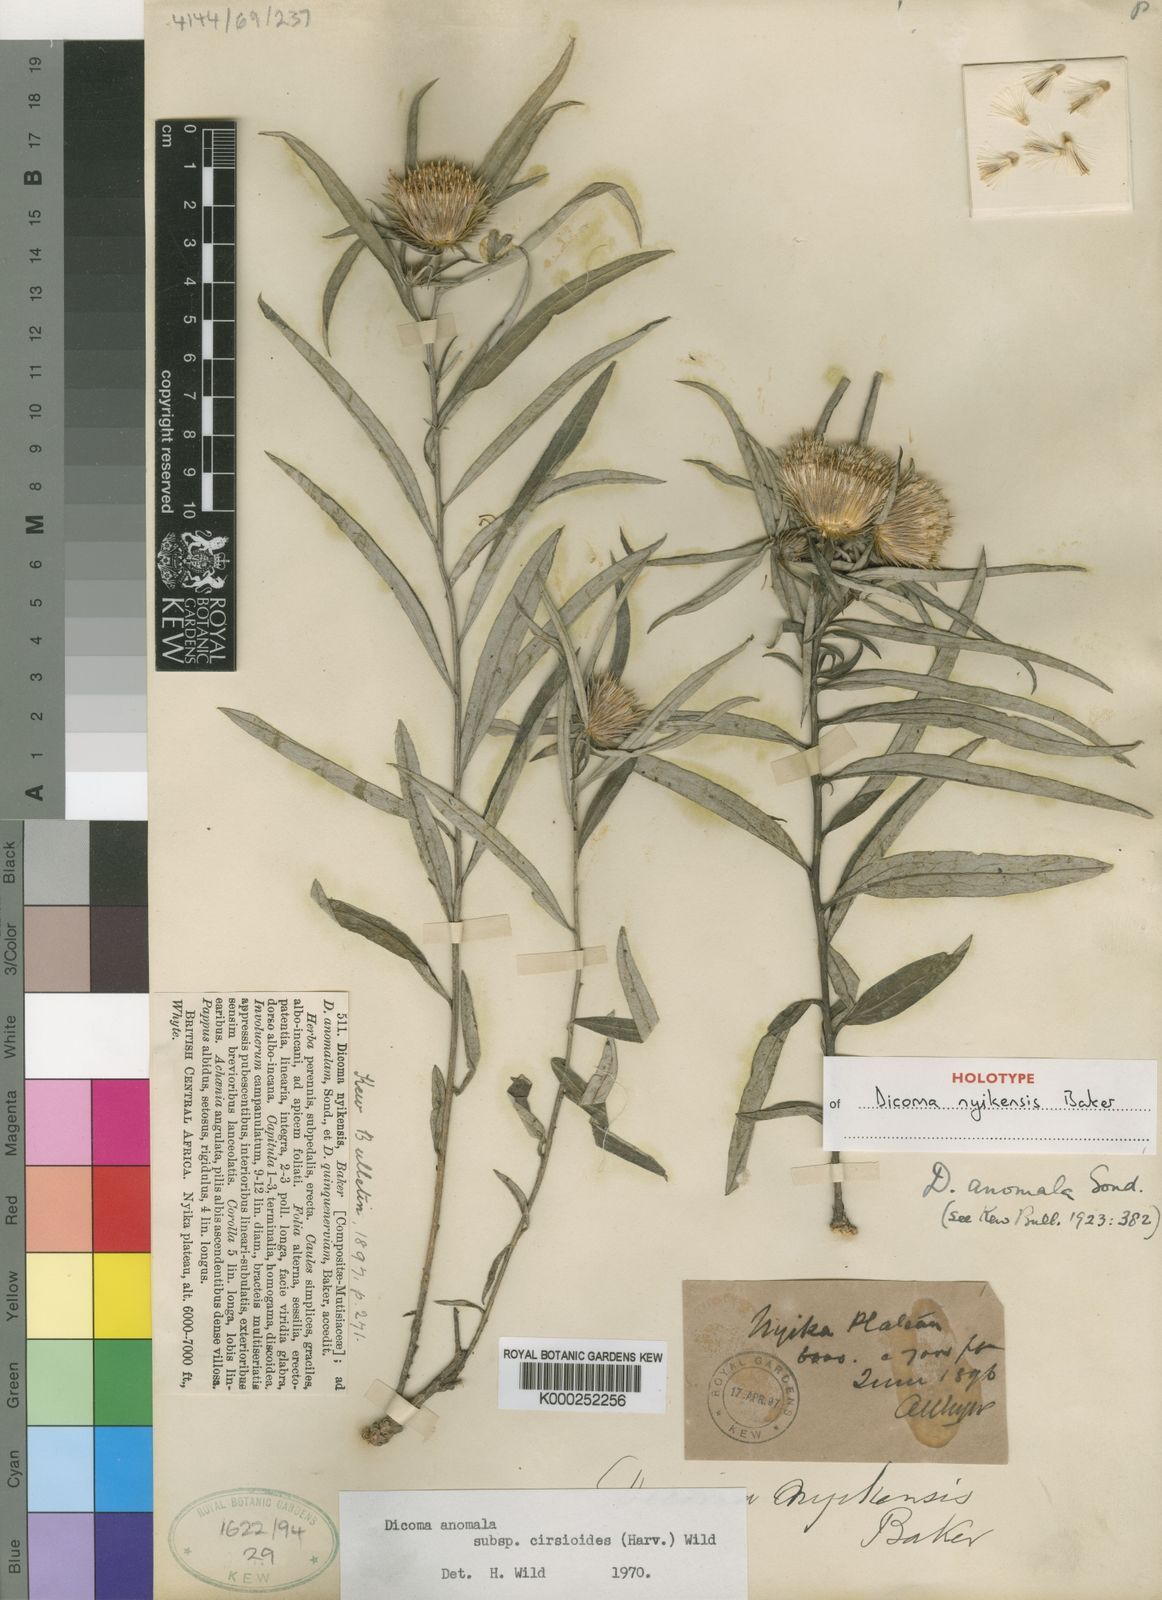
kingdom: Plantae
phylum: Tracheophyta
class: Magnoliopsida
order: Asterales
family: Asteraceae
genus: Dicoma
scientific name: Dicoma anomala
